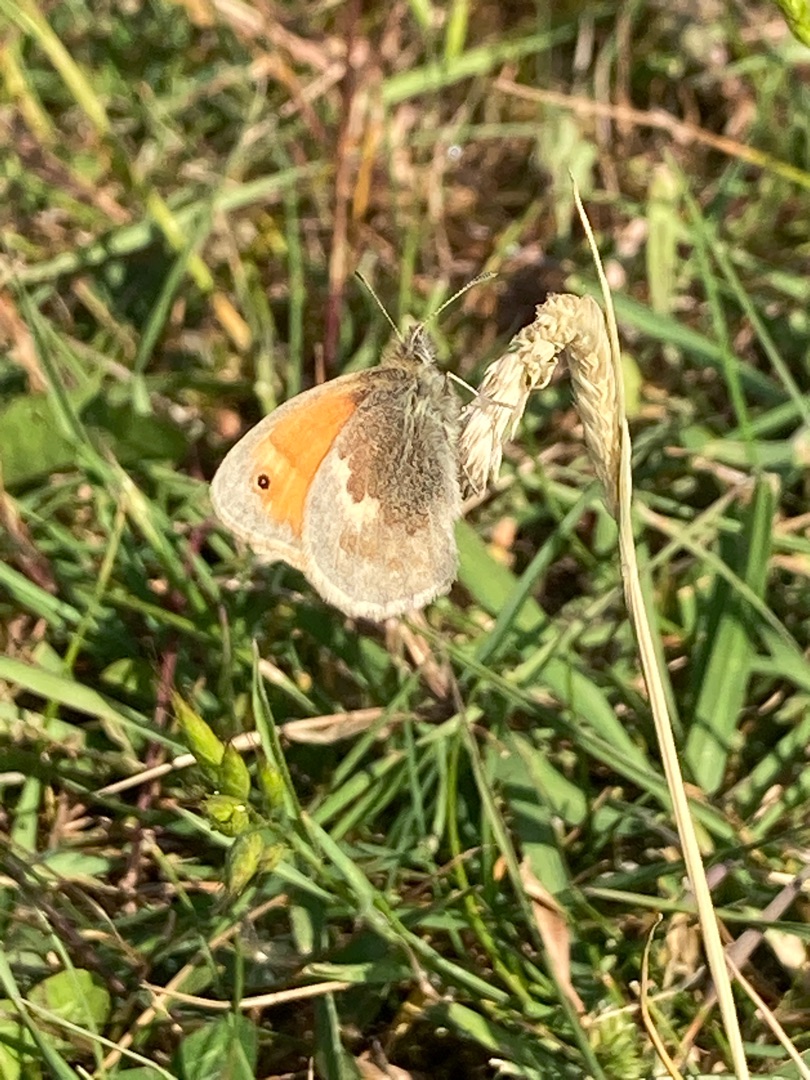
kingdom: Animalia
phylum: Arthropoda
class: Insecta
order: Lepidoptera
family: Nymphalidae
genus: Coenonympha
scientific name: Coenonympha pamphilus
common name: Okkergul randøje
